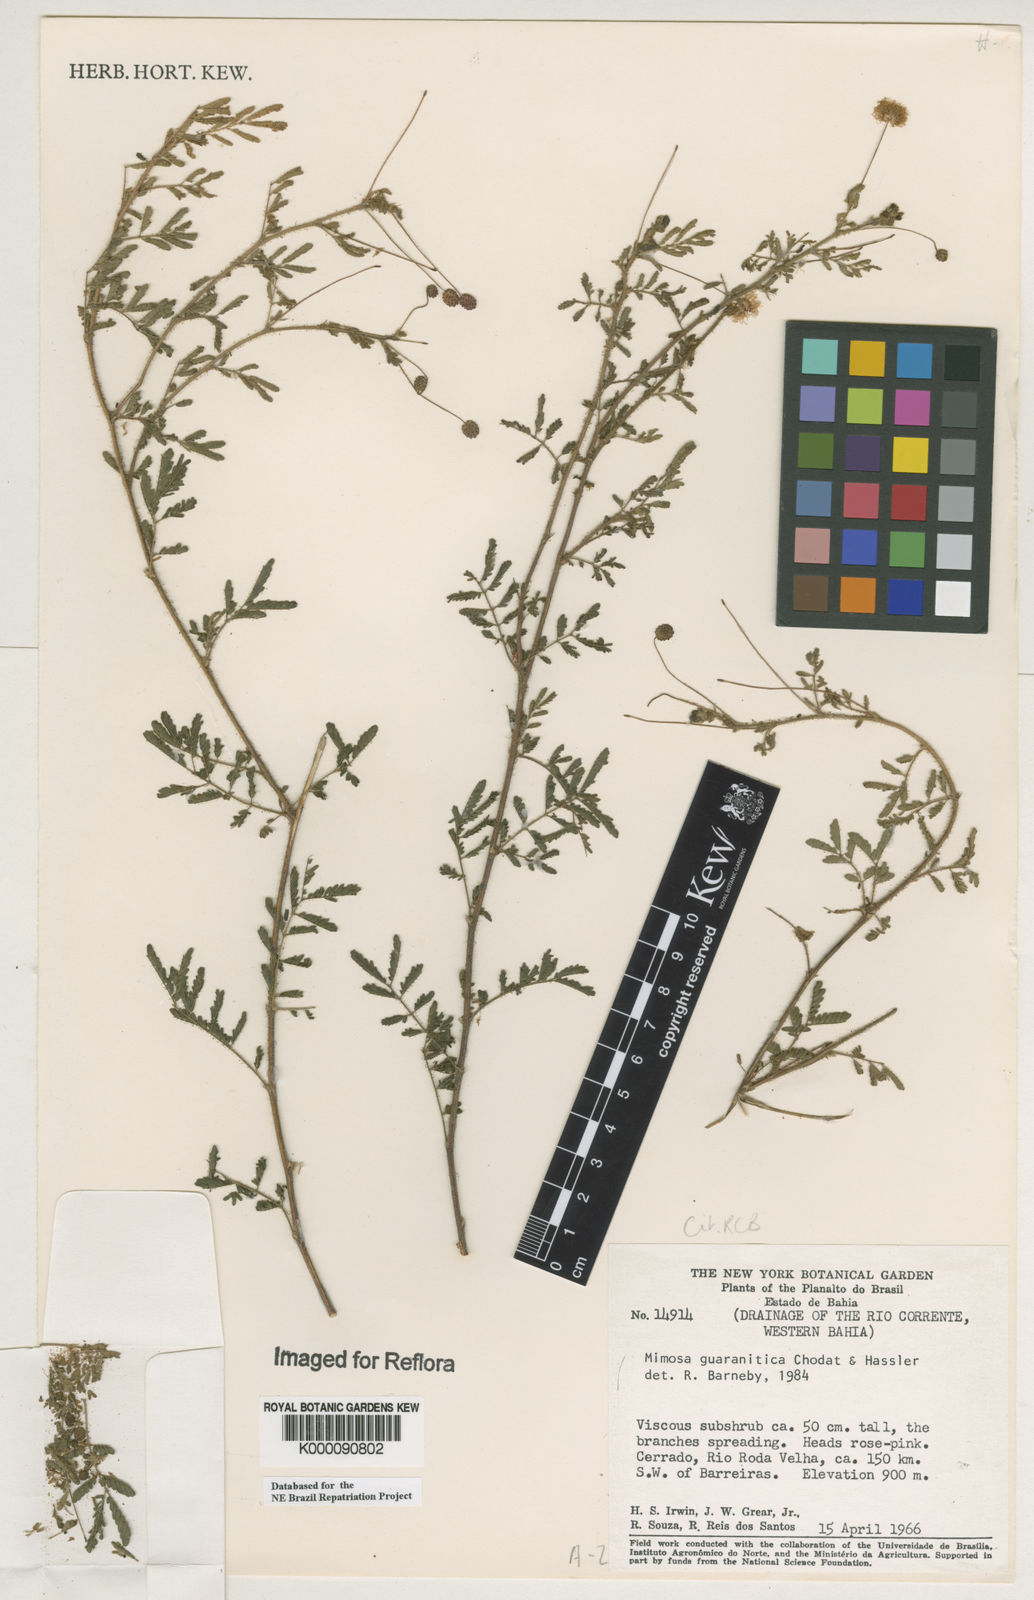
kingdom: Plantae
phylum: Tracheophyta
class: Magnoliopsida
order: Fabales
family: Fabaceae
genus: Mimosa
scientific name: Mimosa guaranitica
